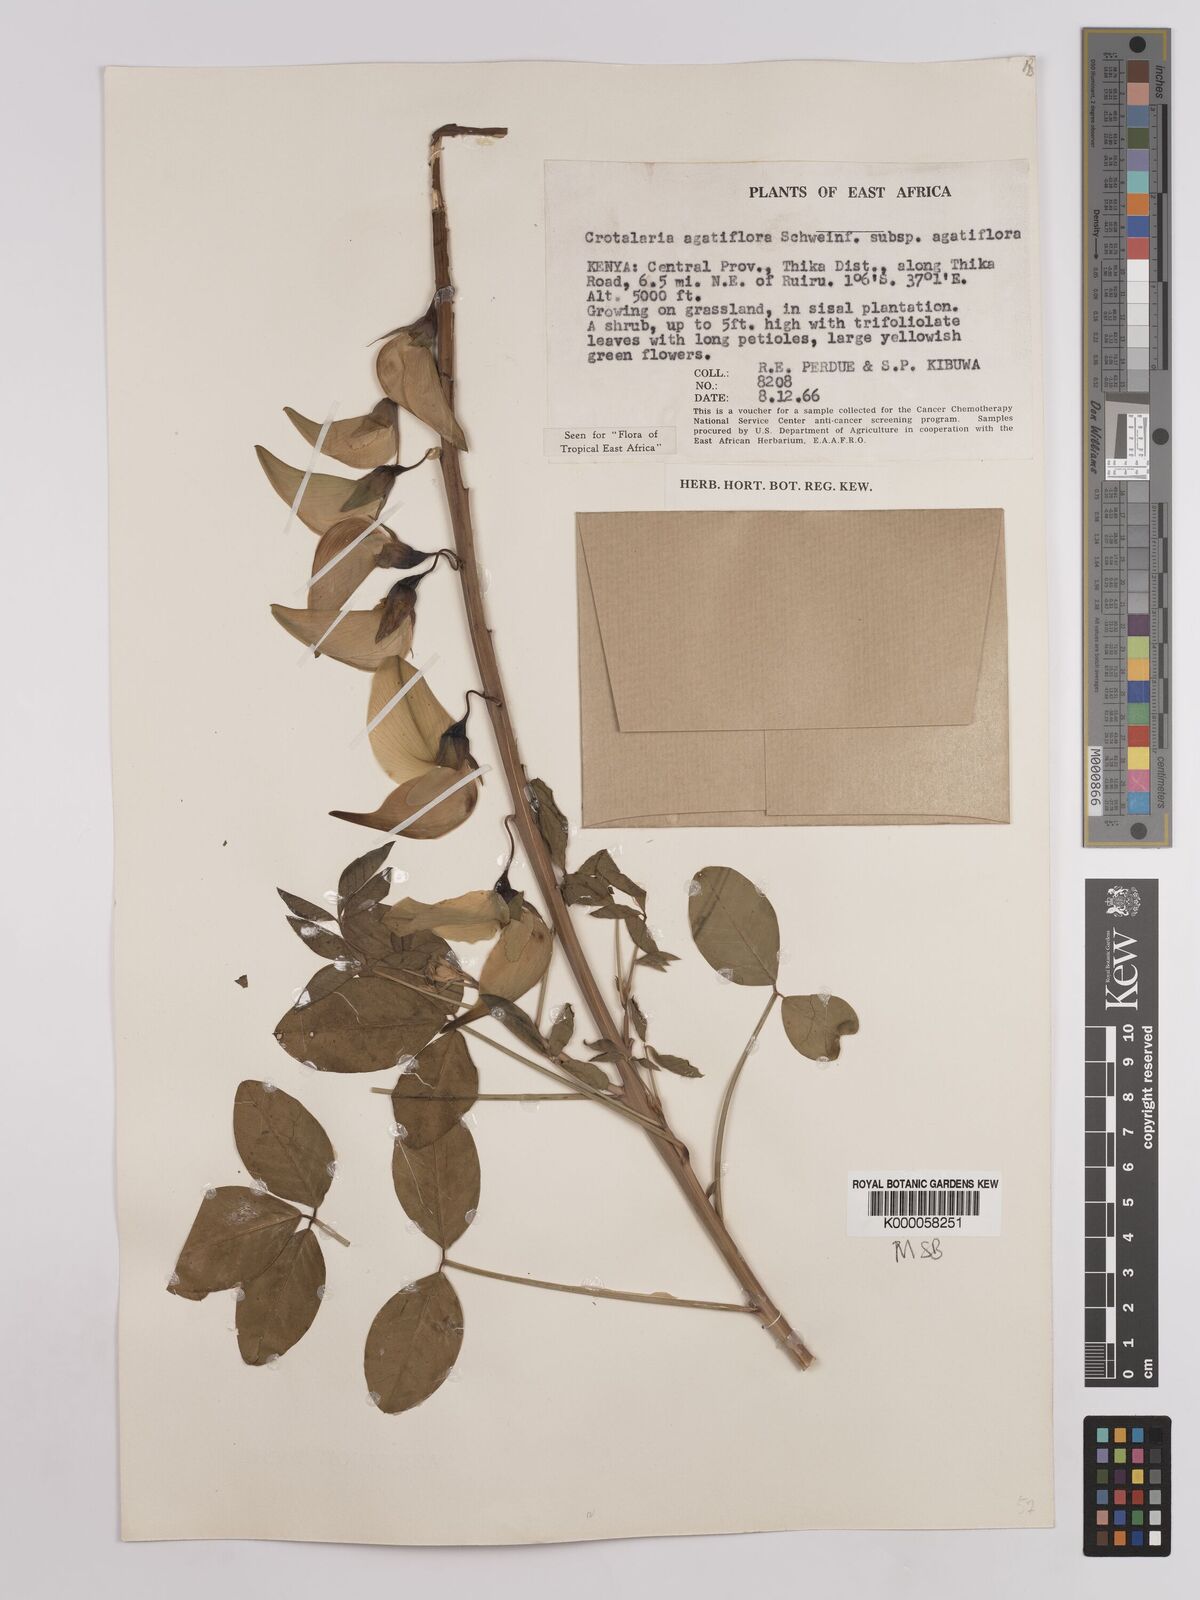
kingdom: Plantae
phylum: Tracheophyta
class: Magnoliopsida
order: Fabales
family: Fabaceae
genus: Crotalaria
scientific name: Crotalaria agatiflora
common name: Birdflower
